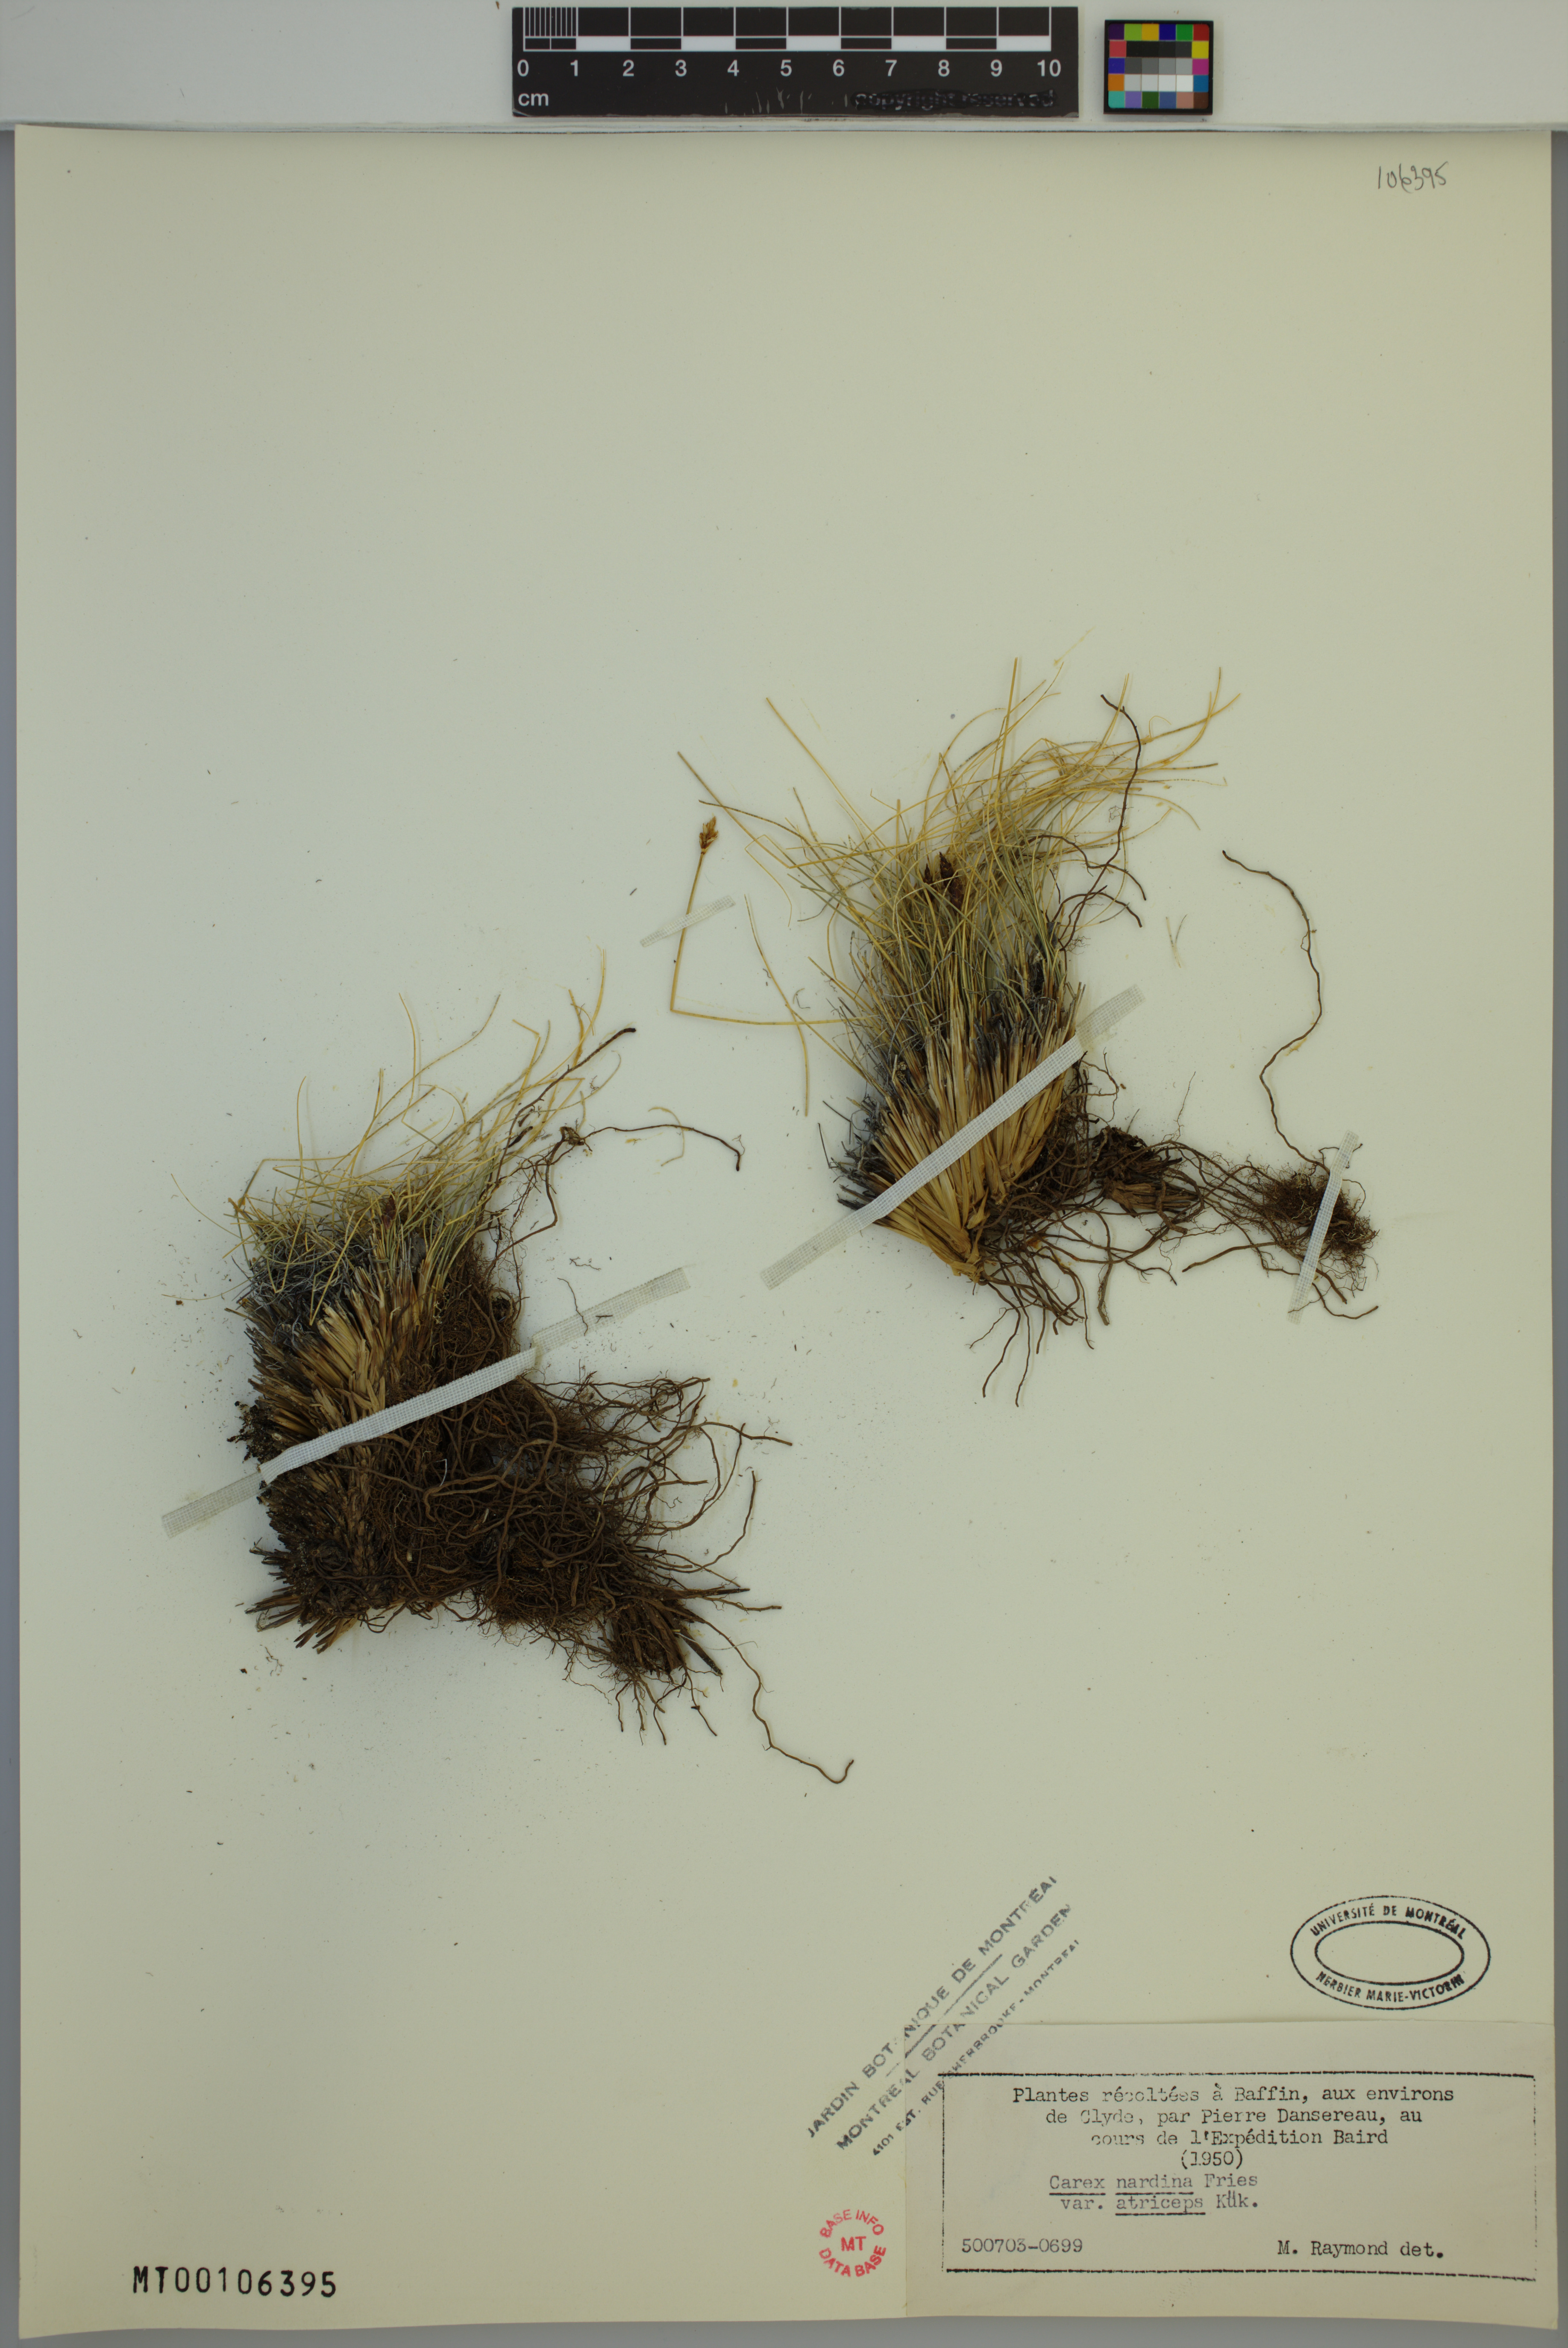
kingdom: Plantae
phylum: Tracheophyta
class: Liliopsida
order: Poales
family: Cyperaceae
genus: Carex
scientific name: Carex nardina
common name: Nard sedge
